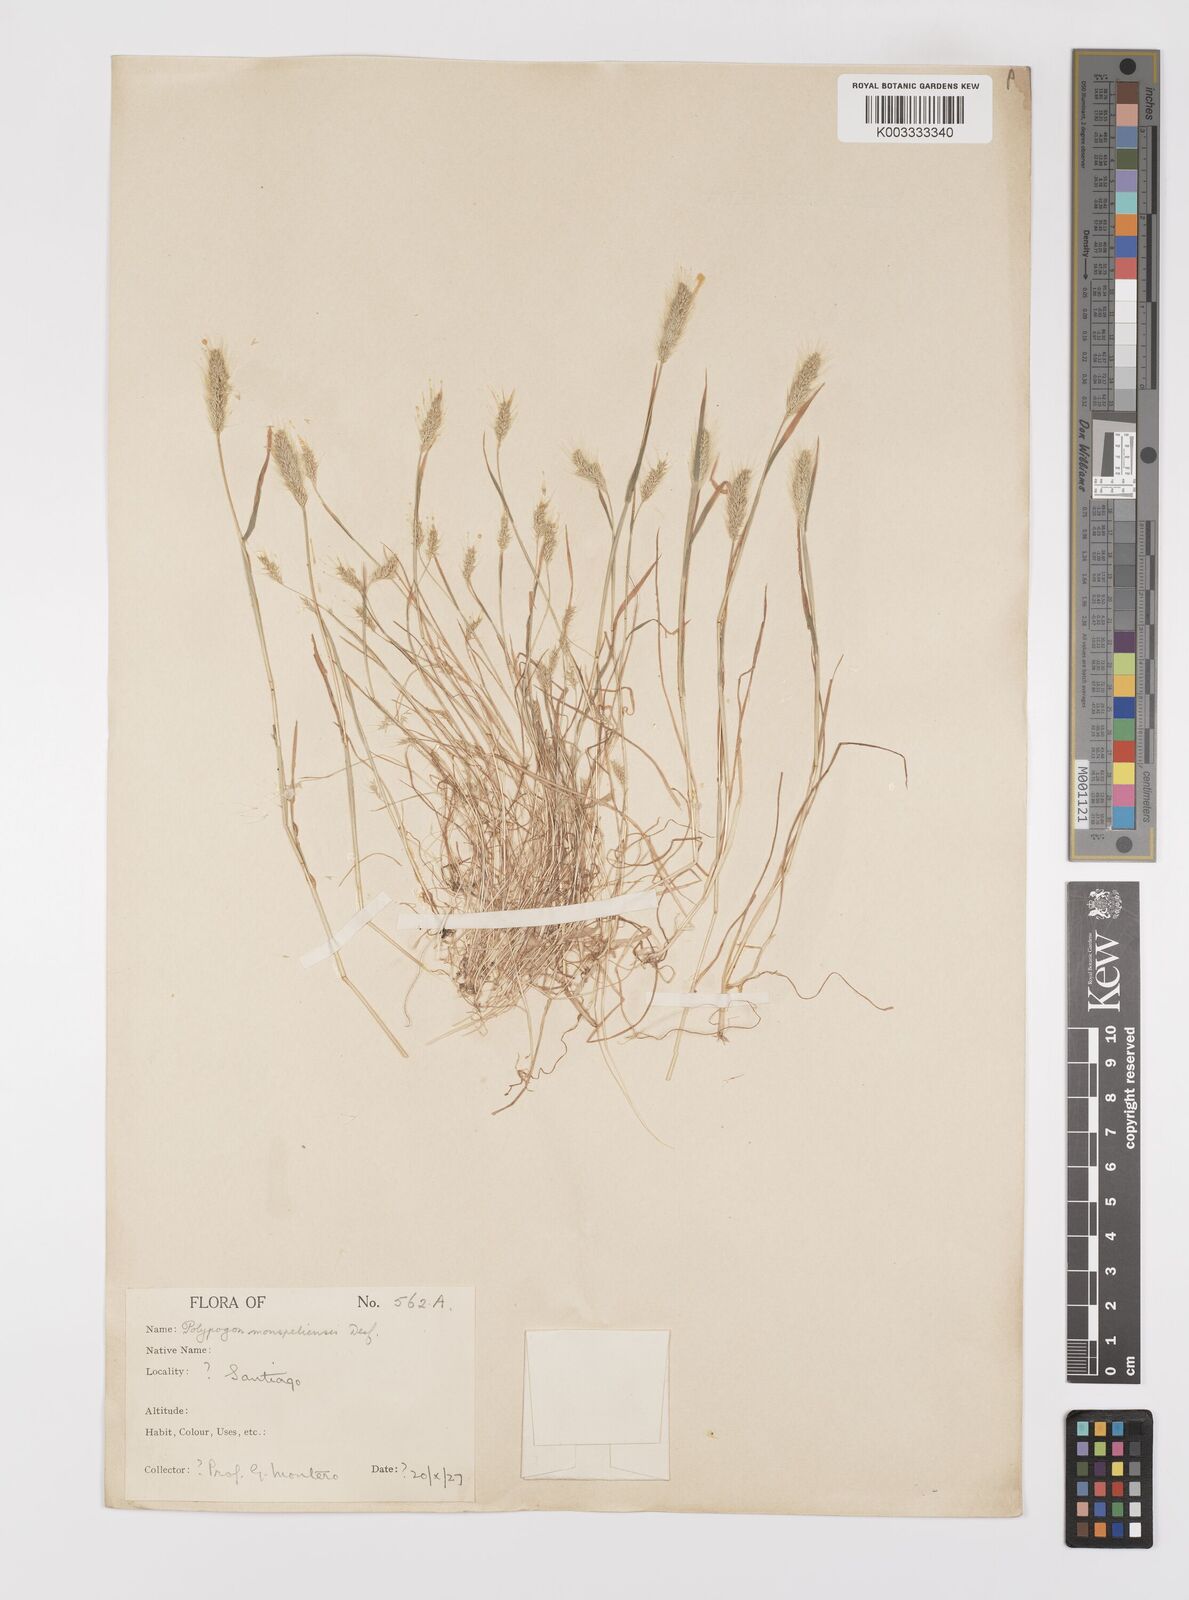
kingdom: Plantae
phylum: Tracheophyta
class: Liliopsida
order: Poales
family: Poaceae
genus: Polypogon
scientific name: Polypogon monspeliensis
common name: Annual rabbitsfoot grass
